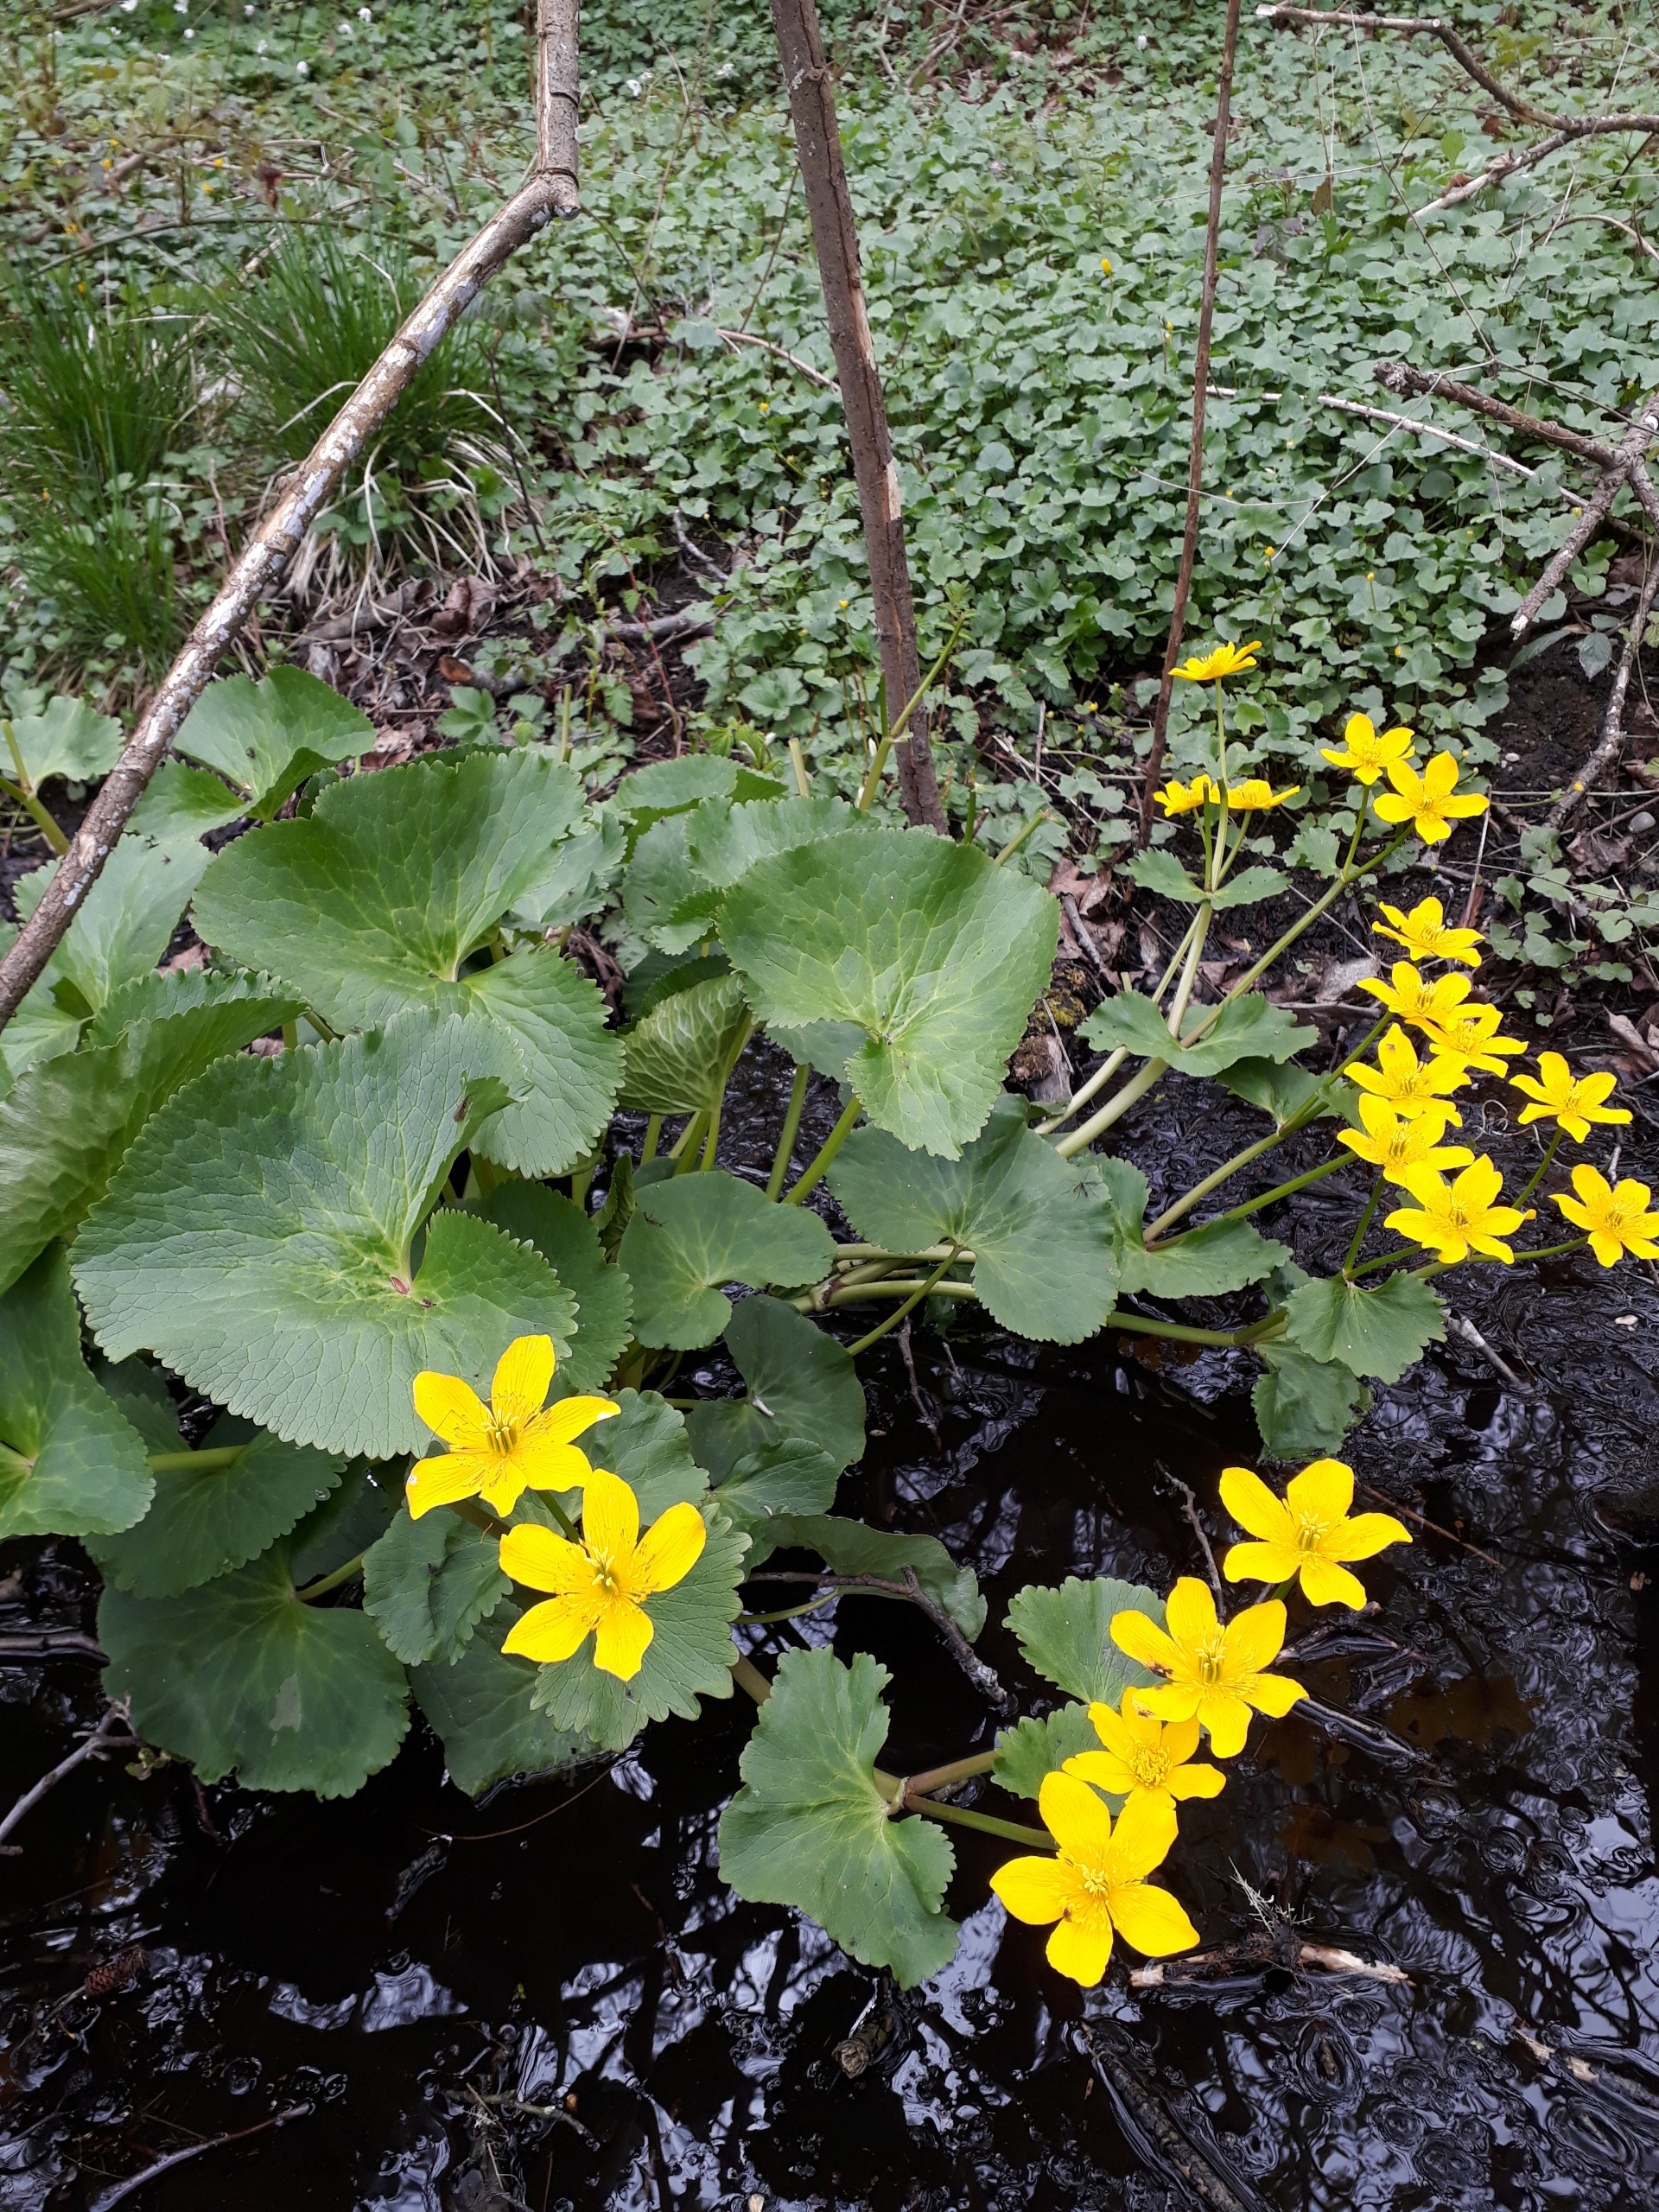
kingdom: Plantae
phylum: Tracheophyta
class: Magnoliopsida
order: Ranunculales
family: Ranunculaceae
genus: Caltha
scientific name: Caltha palustris
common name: Eng-kabbeleje
